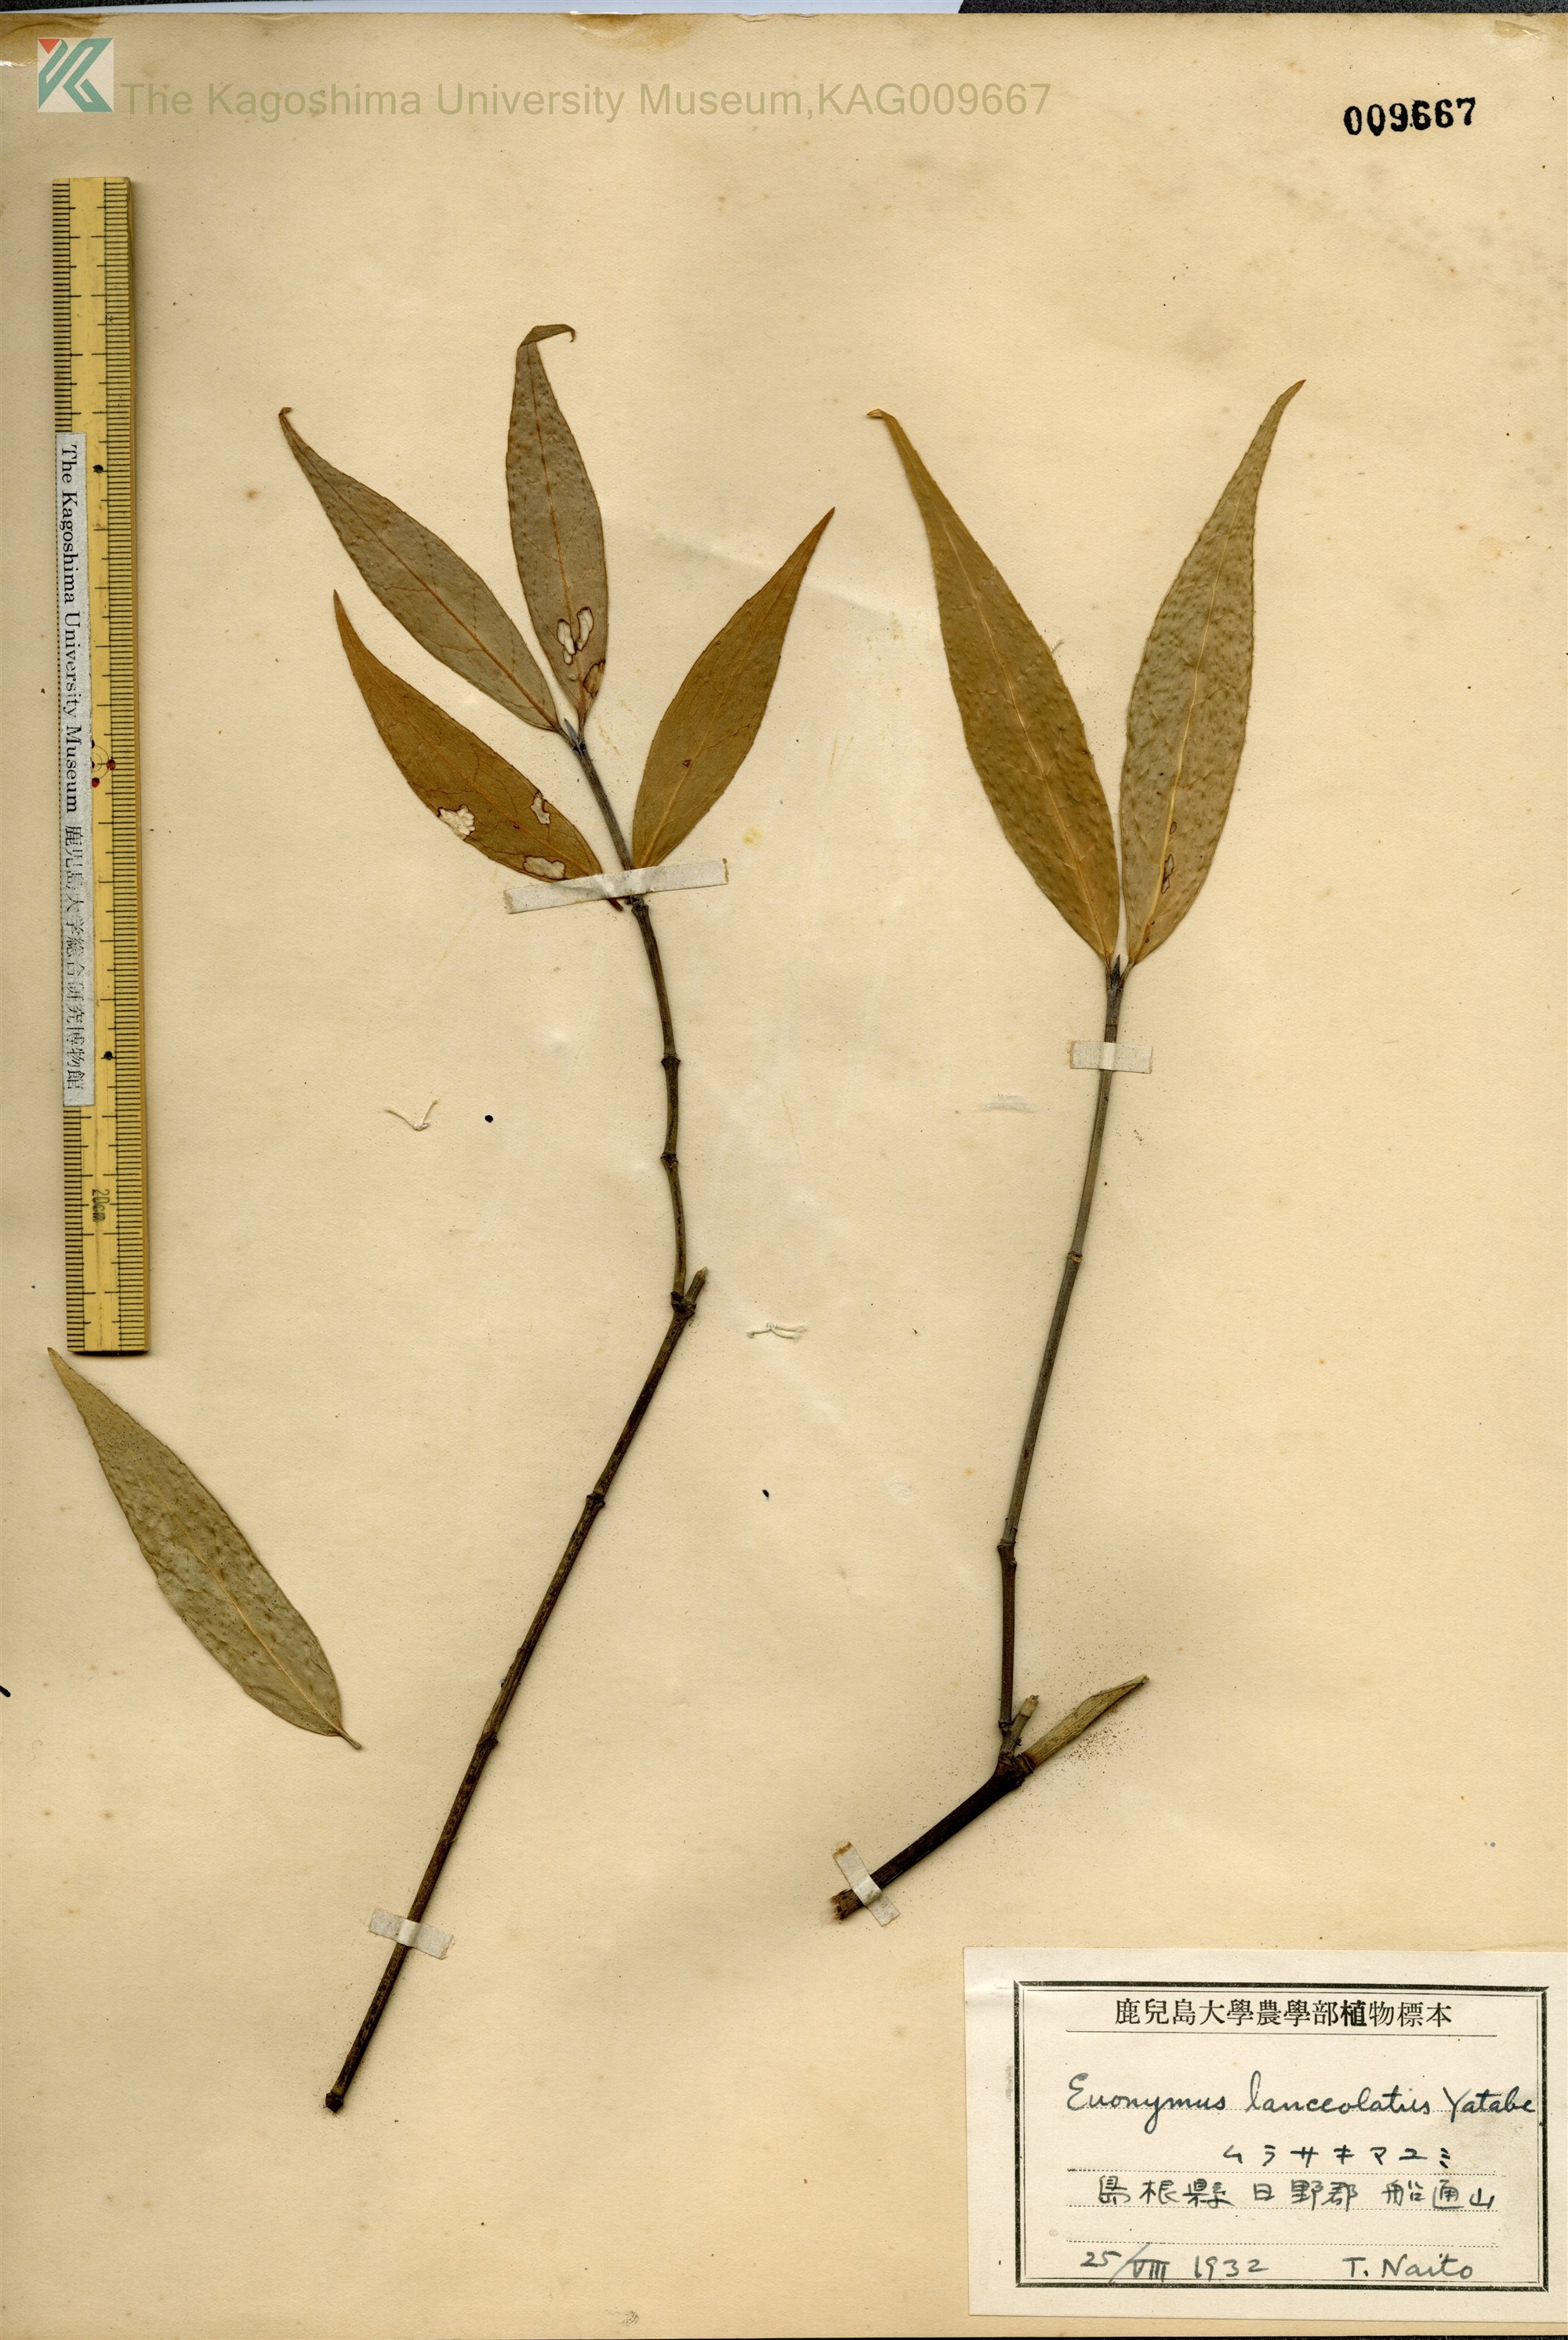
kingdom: Plantae
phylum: Tracheophyta
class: Magnoliopsida
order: Celastrales
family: Celastraceae
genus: Euonymus
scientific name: Euonymus
